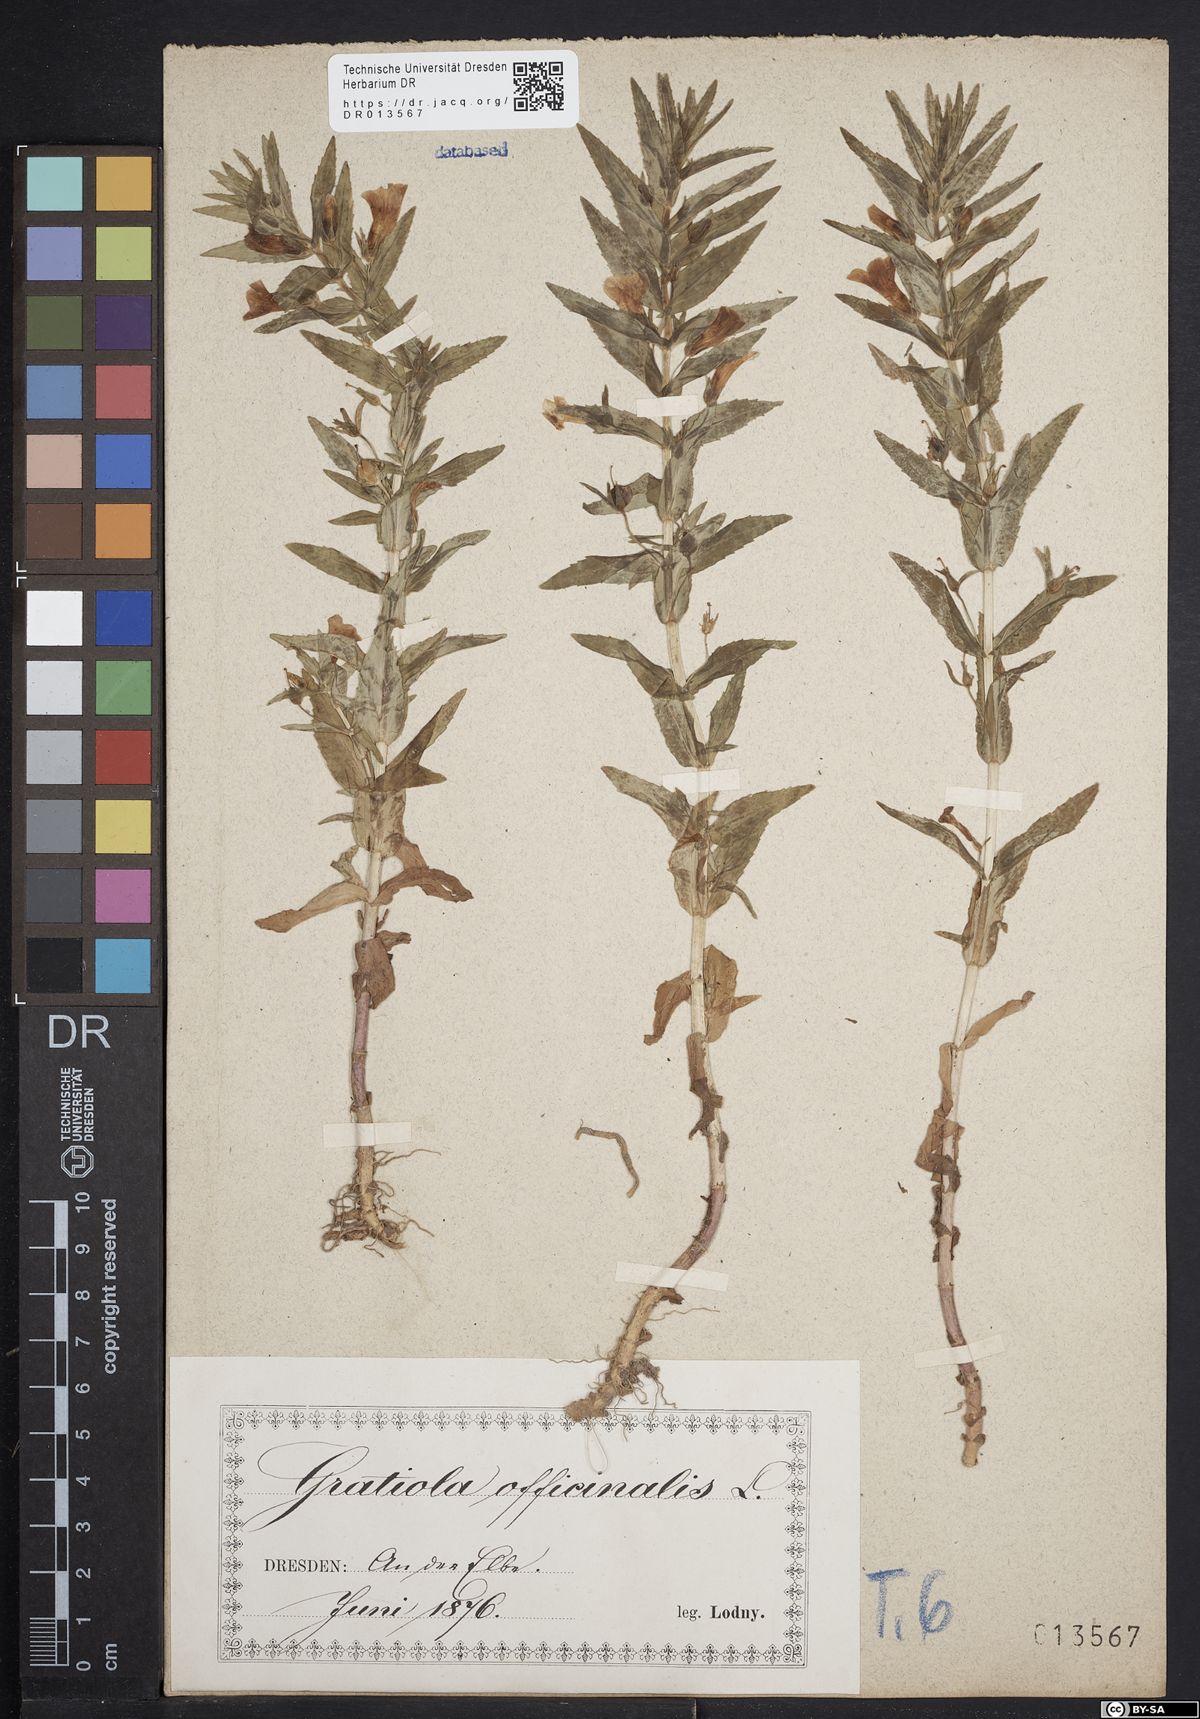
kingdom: Plantae
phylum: Tracheophyta
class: Magnoliopsida
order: Lamiales
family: Plantaginaceae
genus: Gratiola
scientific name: Gratiola officinalis
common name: Gratiola
